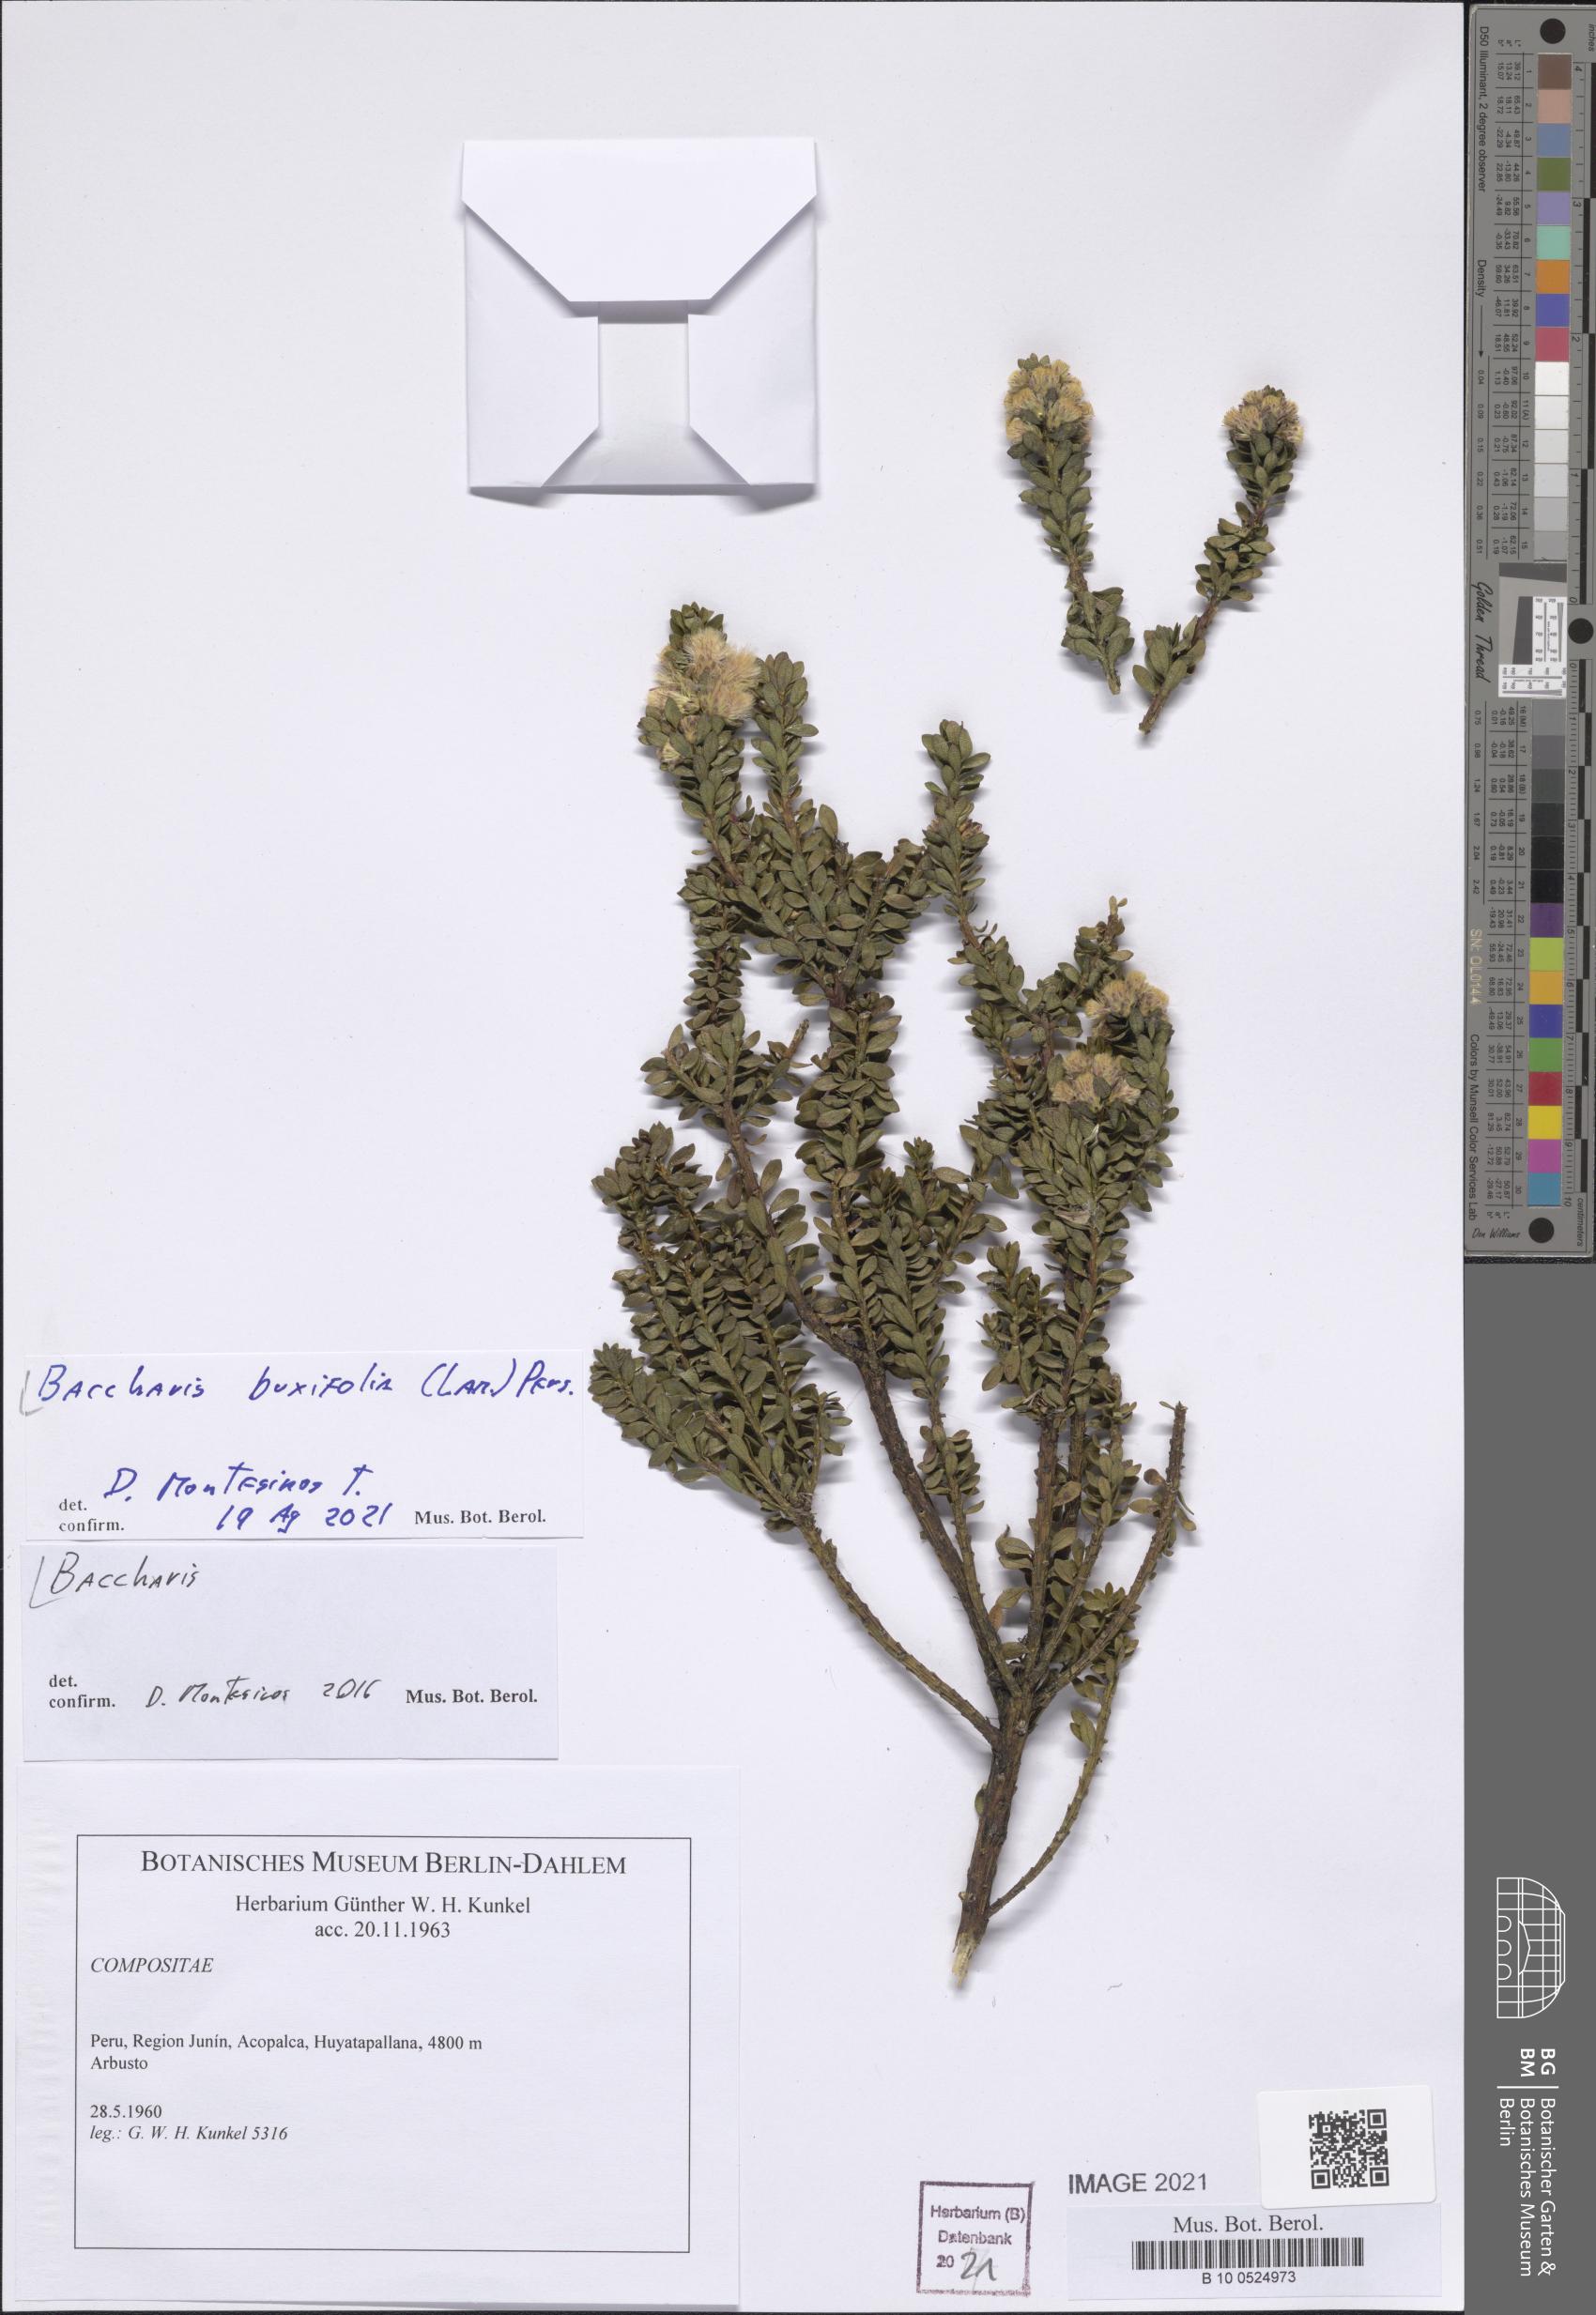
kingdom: Plantae
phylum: Tracheophyta
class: Magnoliopsida
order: Asterales
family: Asteraceae
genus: Baccharis
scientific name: Baccharis buxifolia
